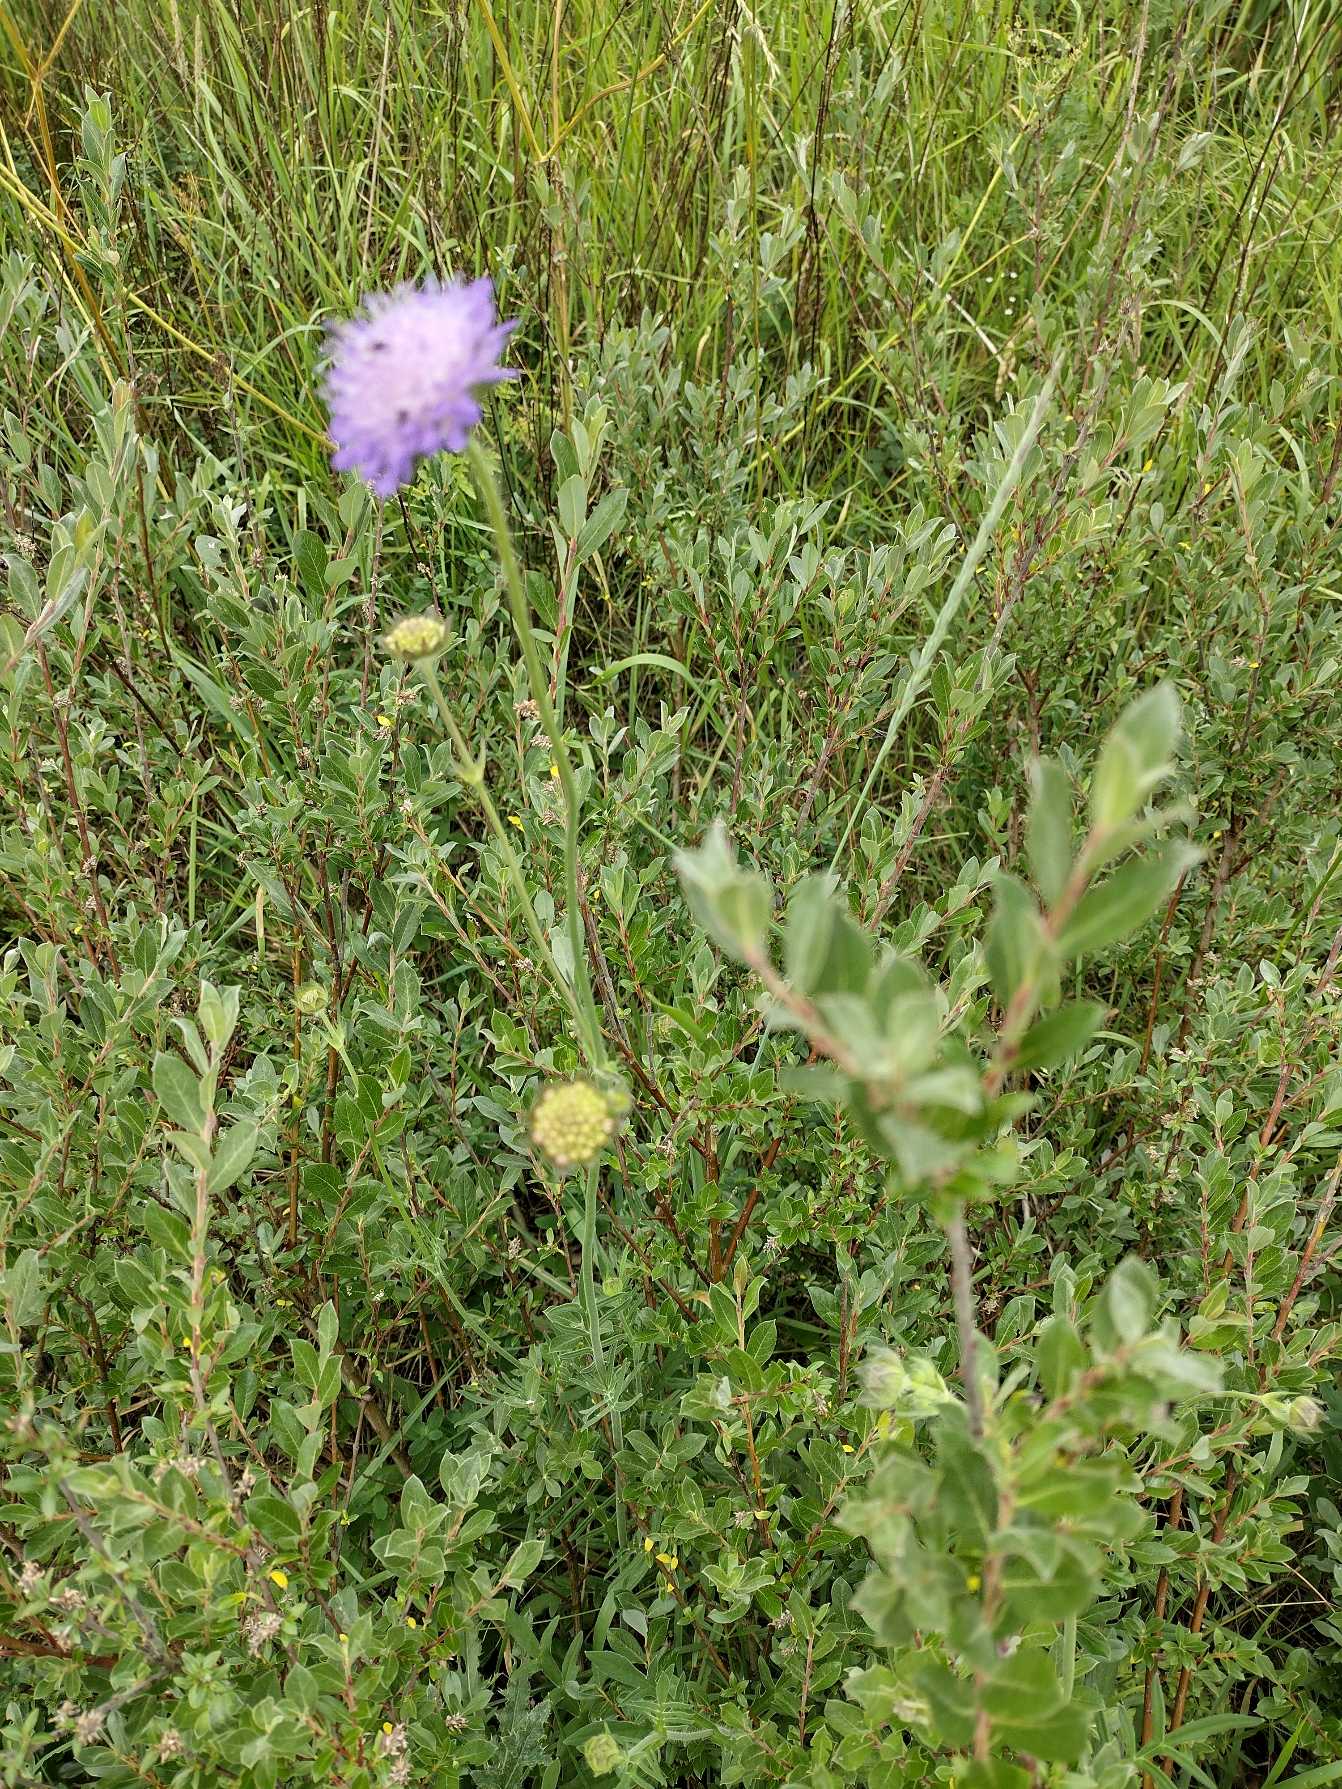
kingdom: Plantae
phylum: Tracheophyta
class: Magnoliopsida
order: Dipsacales
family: Caprifoliaceae
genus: Knautia
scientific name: Knautia arvensis
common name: Blåhat
